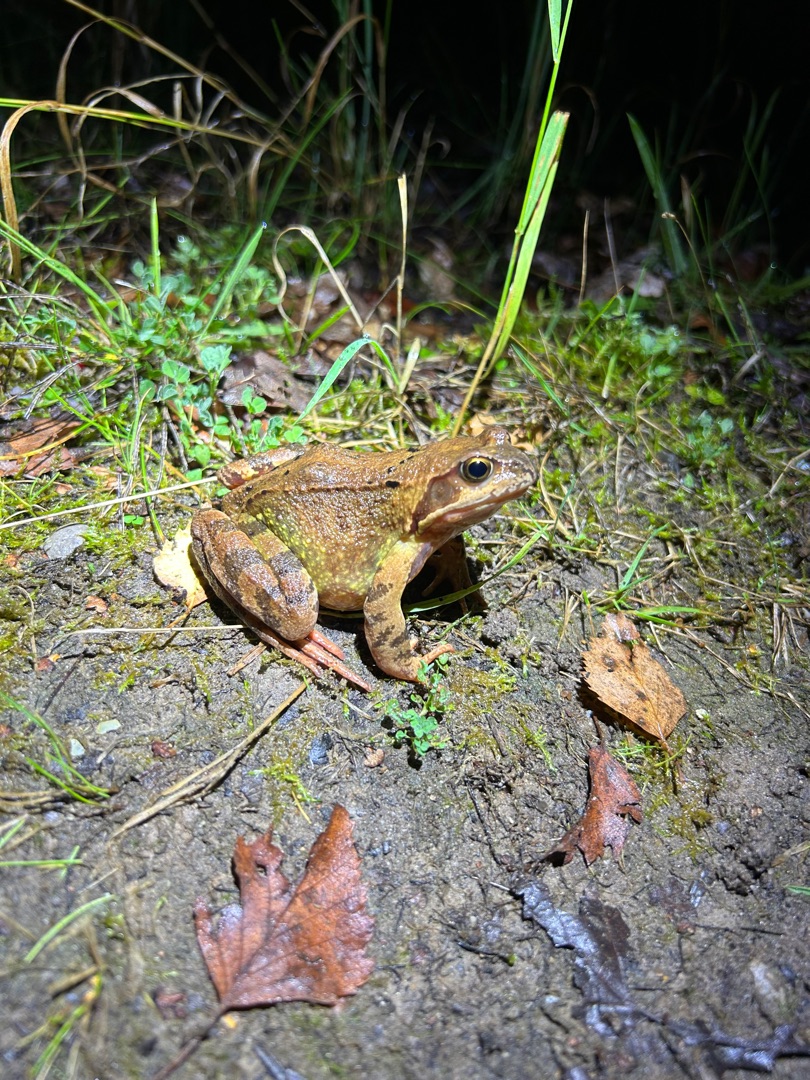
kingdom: Animalia
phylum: Chordata
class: Amphibia
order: Anura
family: Ranidae
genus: Rana
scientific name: Rana temporaria
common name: Butsnudet frø
